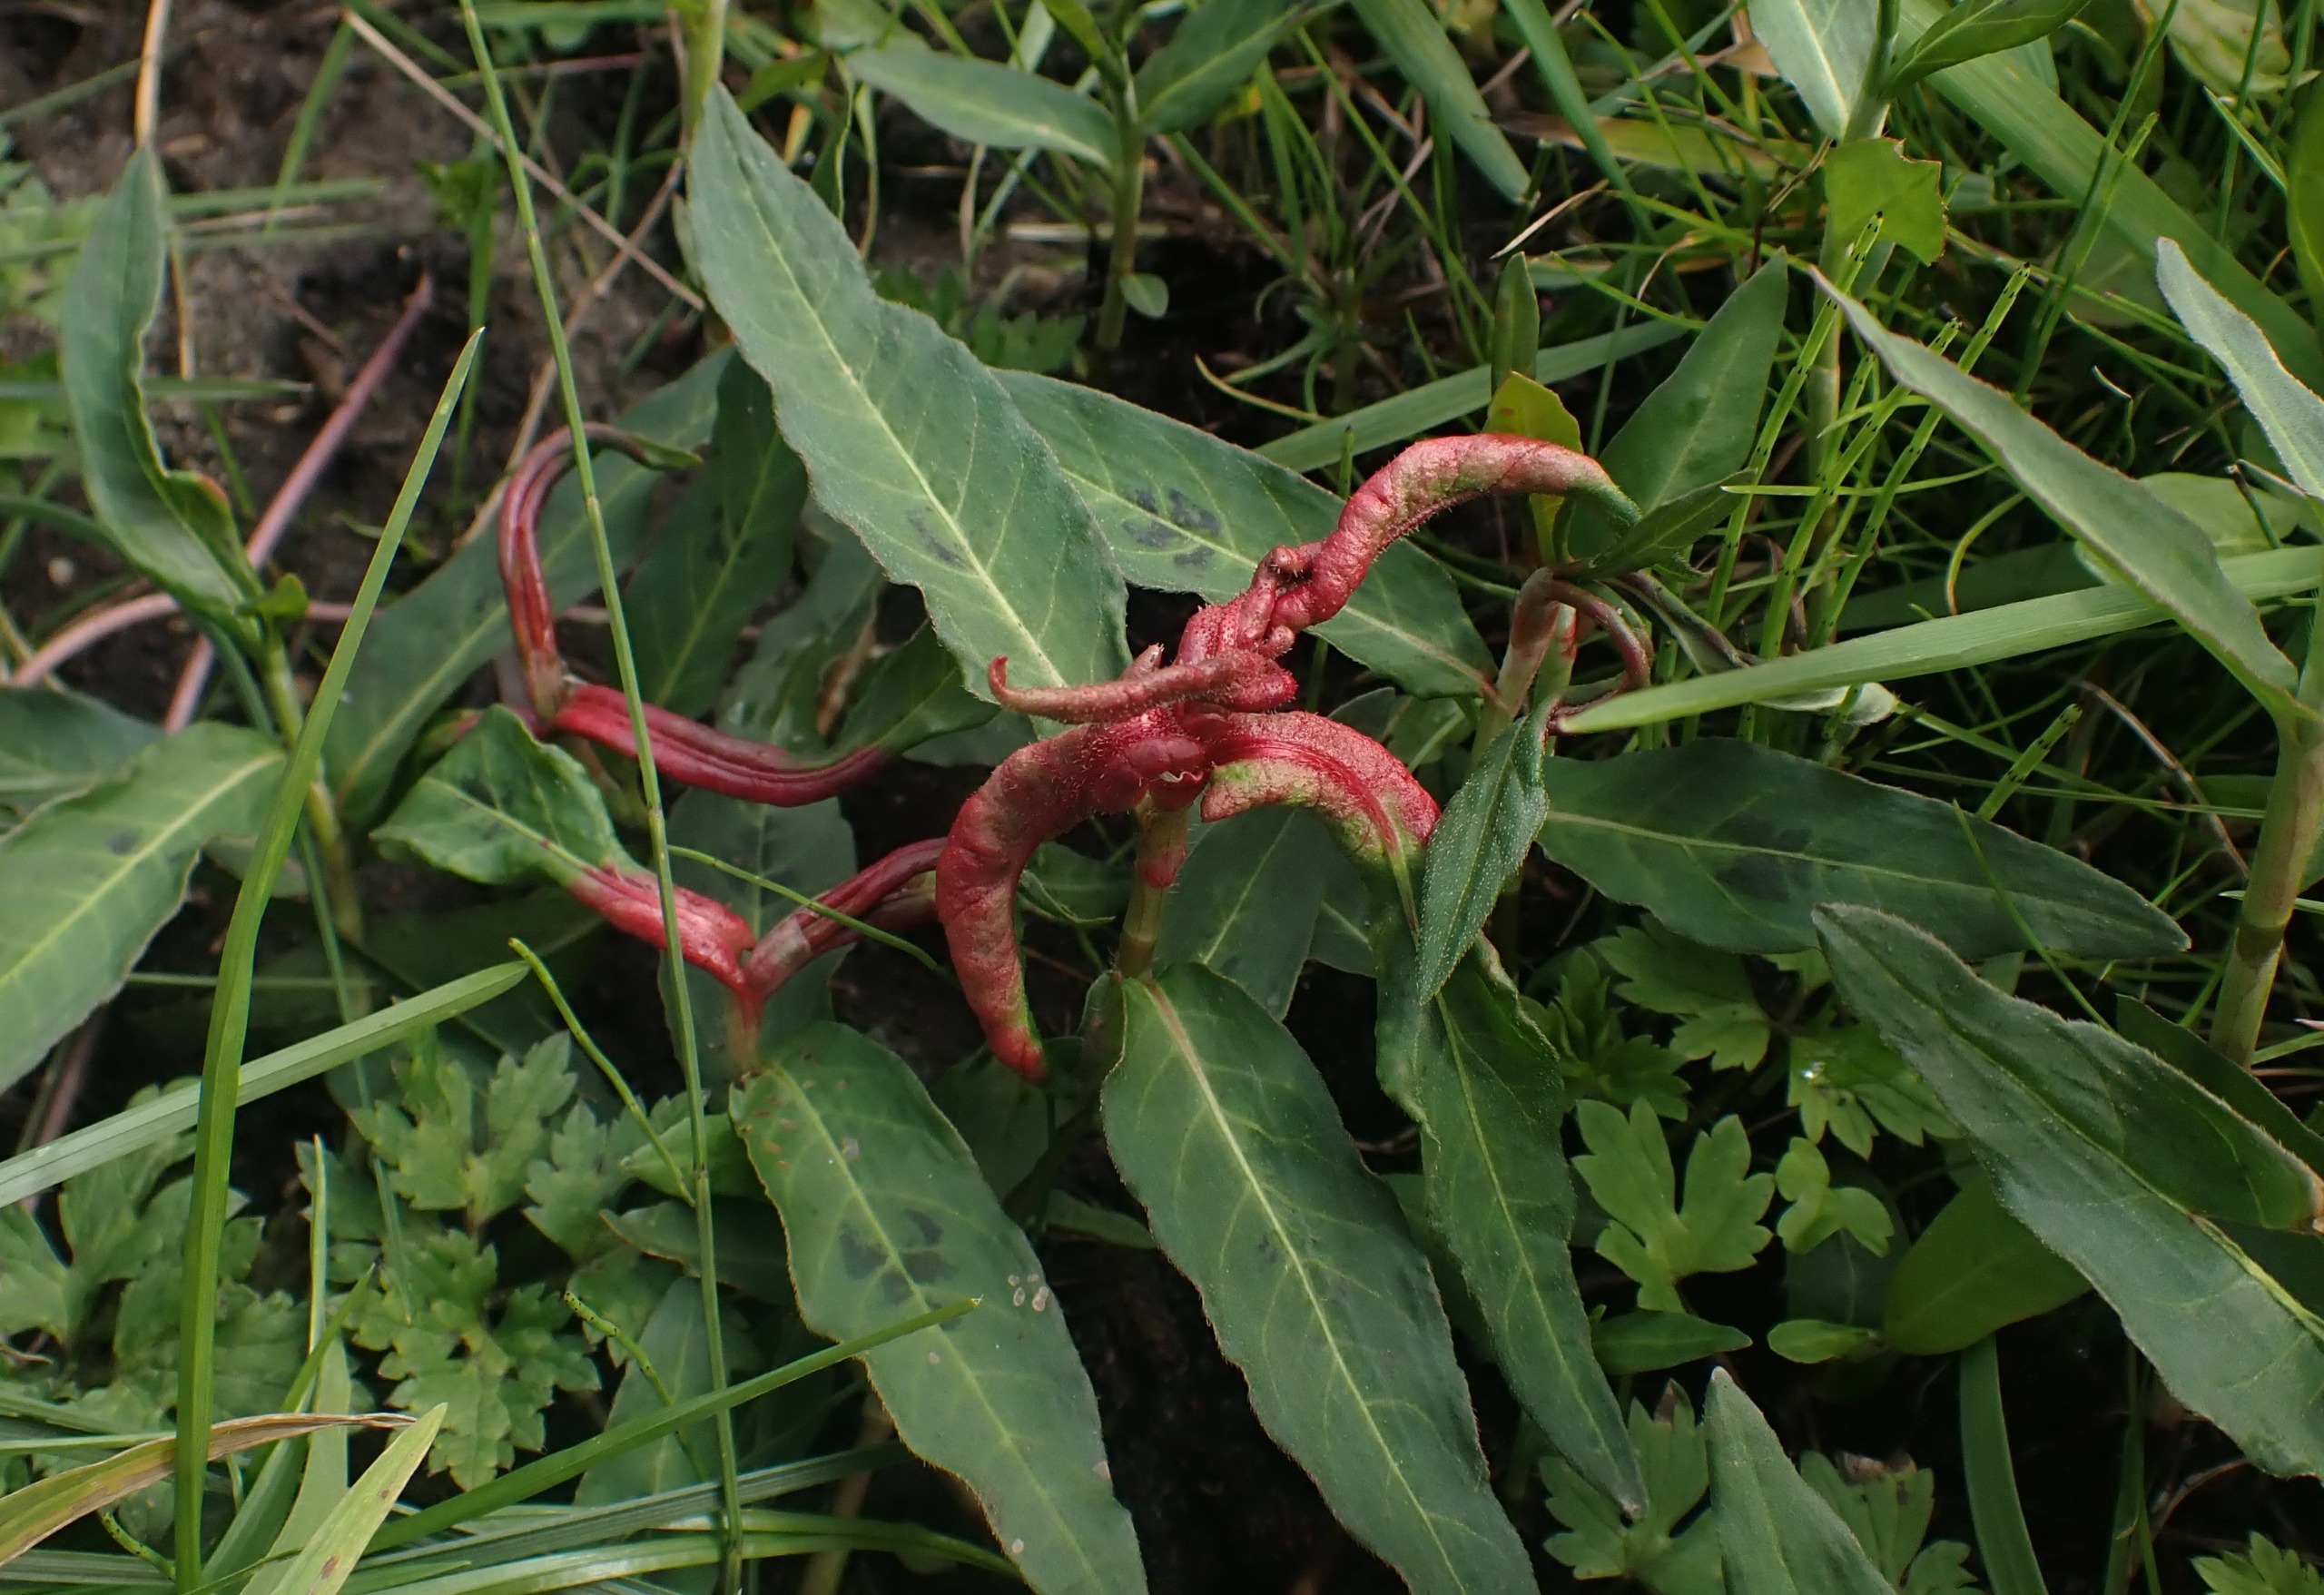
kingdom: Animalia
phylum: Arthropoda
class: Insecta
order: Diptera
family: Cecidomyiidae
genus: Wachtliella
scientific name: Wachtliella persicariae
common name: Pileurtgalmyg
